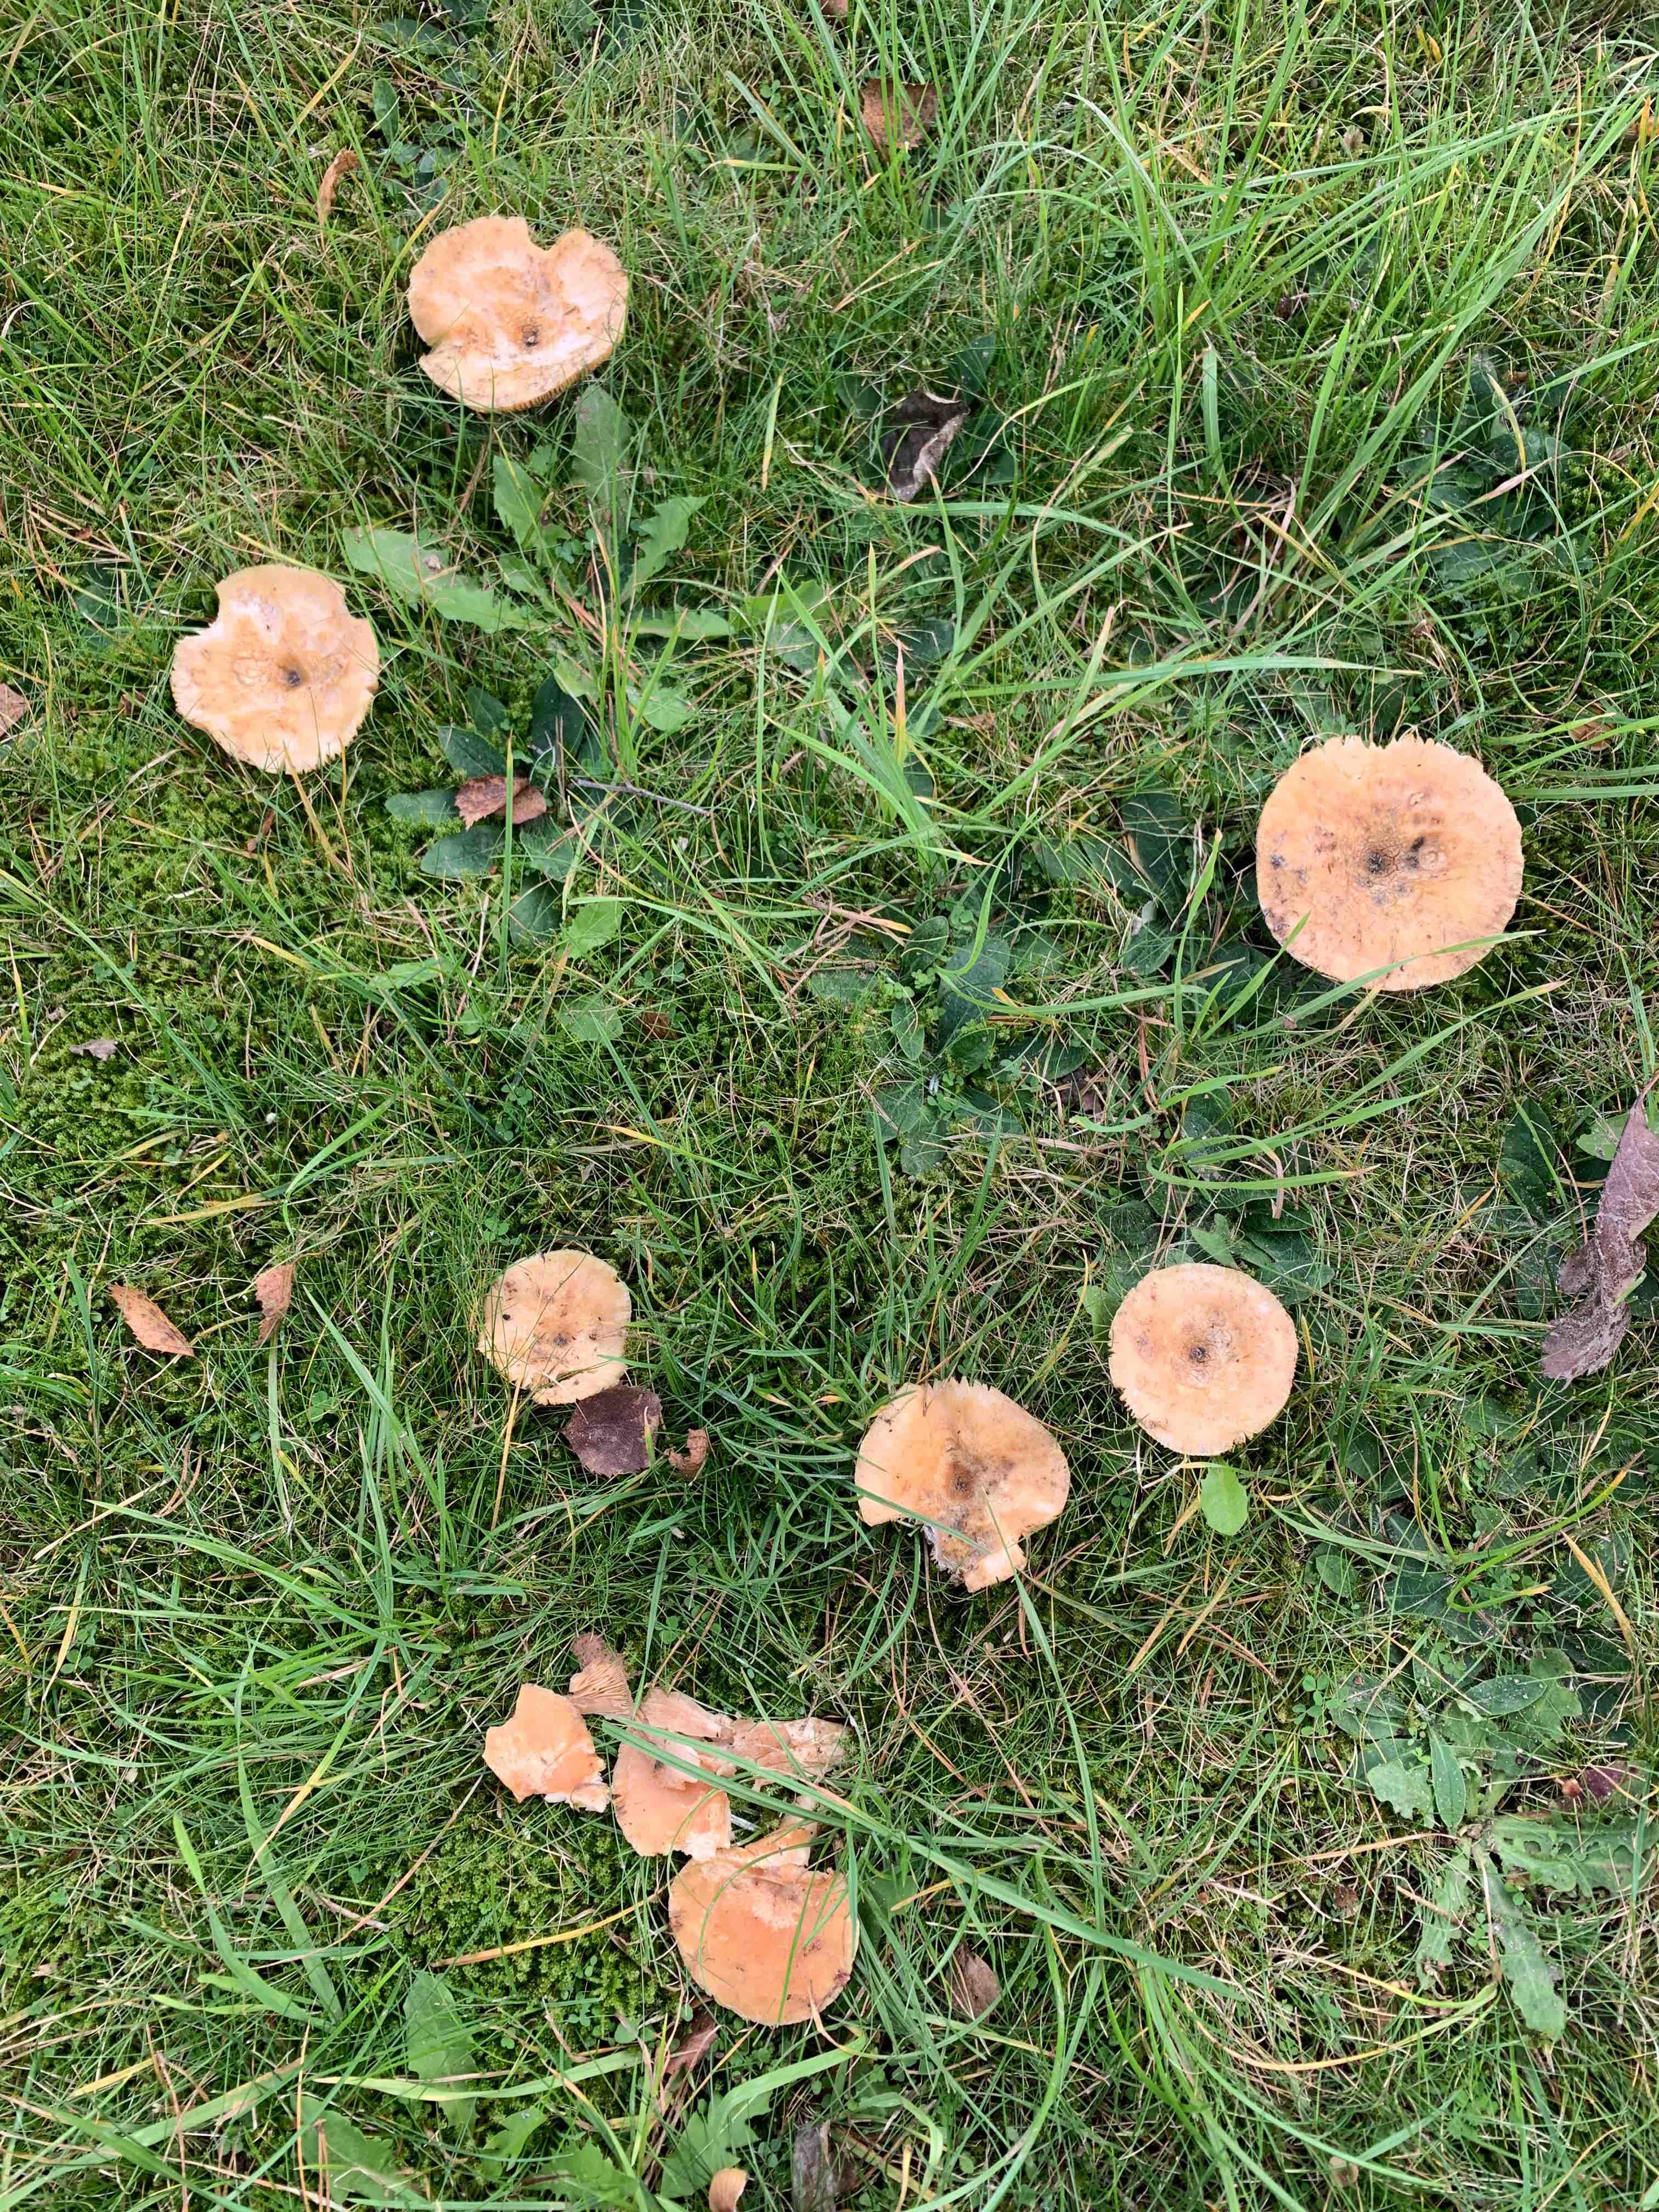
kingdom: Fungi
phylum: Basidiomycota
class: Agaricomycetes
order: Russulales
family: Russulaceae
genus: Lactarius
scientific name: Lactarius pubescens
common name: dunet mælkehat
